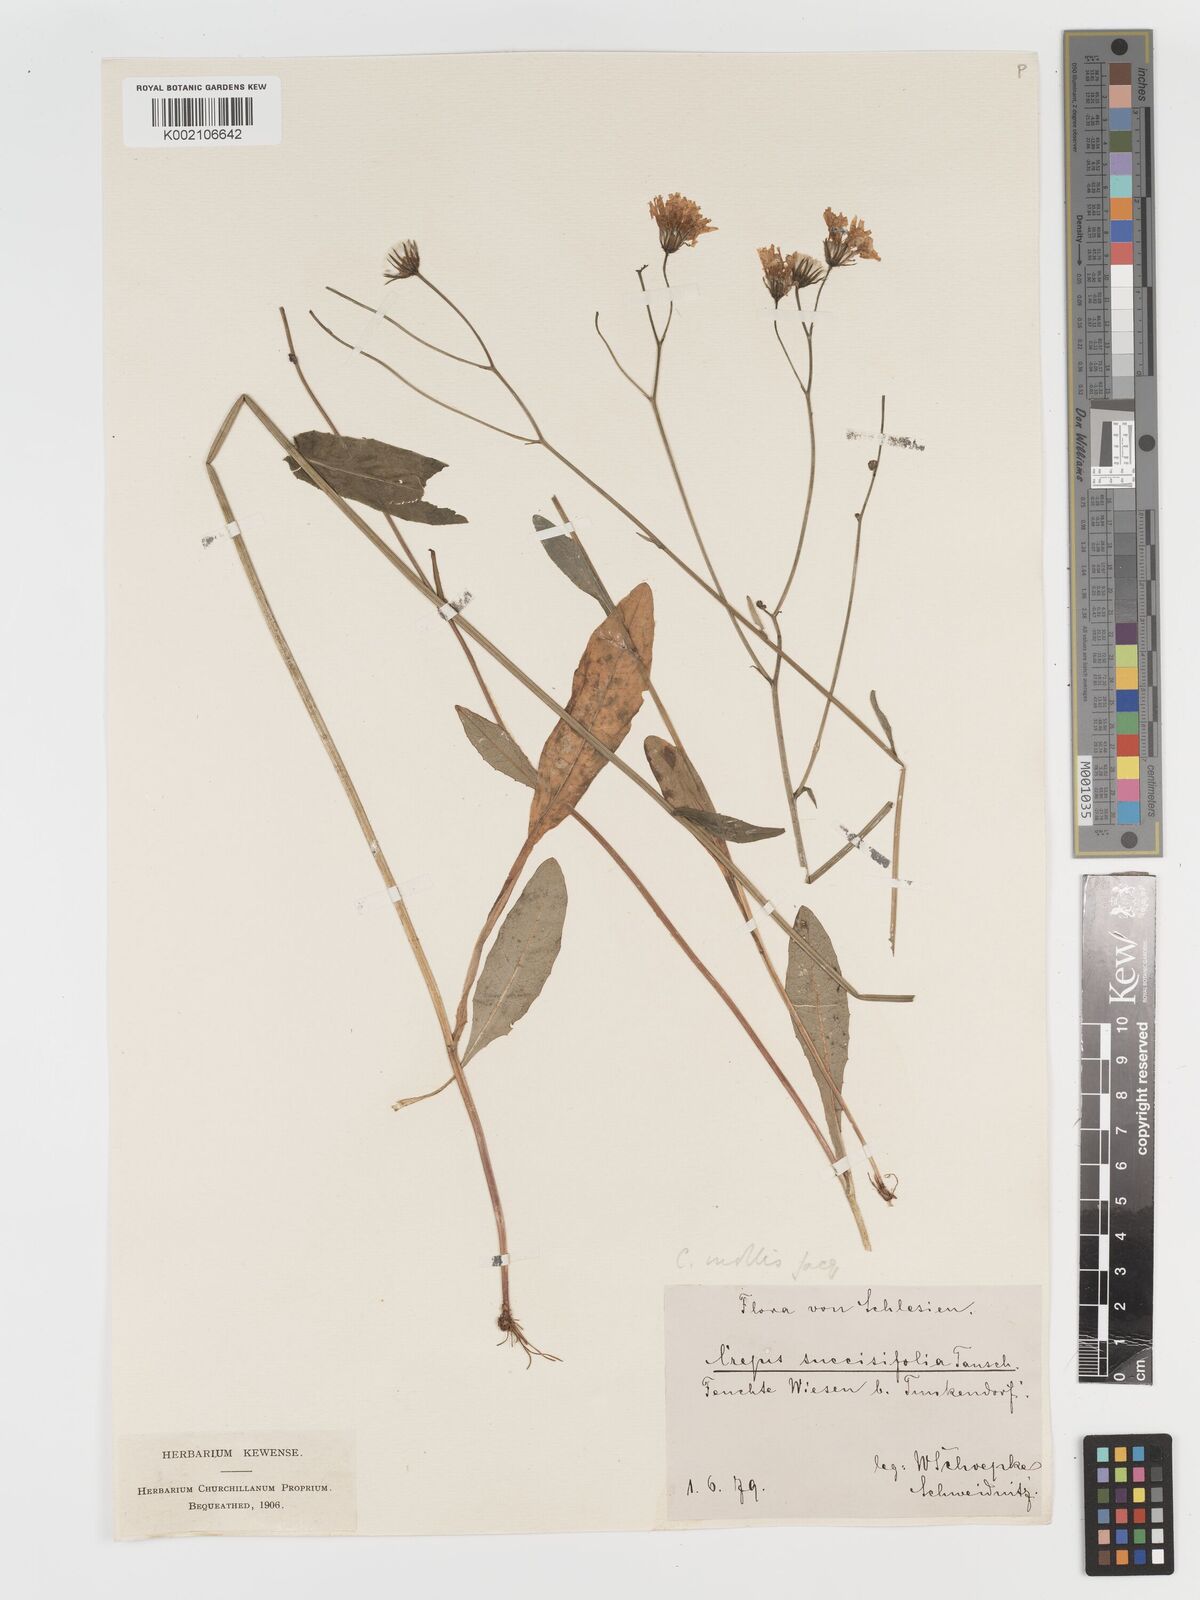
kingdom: Plantae
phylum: Tracheophyta
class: Magnoliopsida
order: Asterales
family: Asteraceae
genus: Crepis
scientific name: Crepis mollis
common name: Northern hawk's-beard
